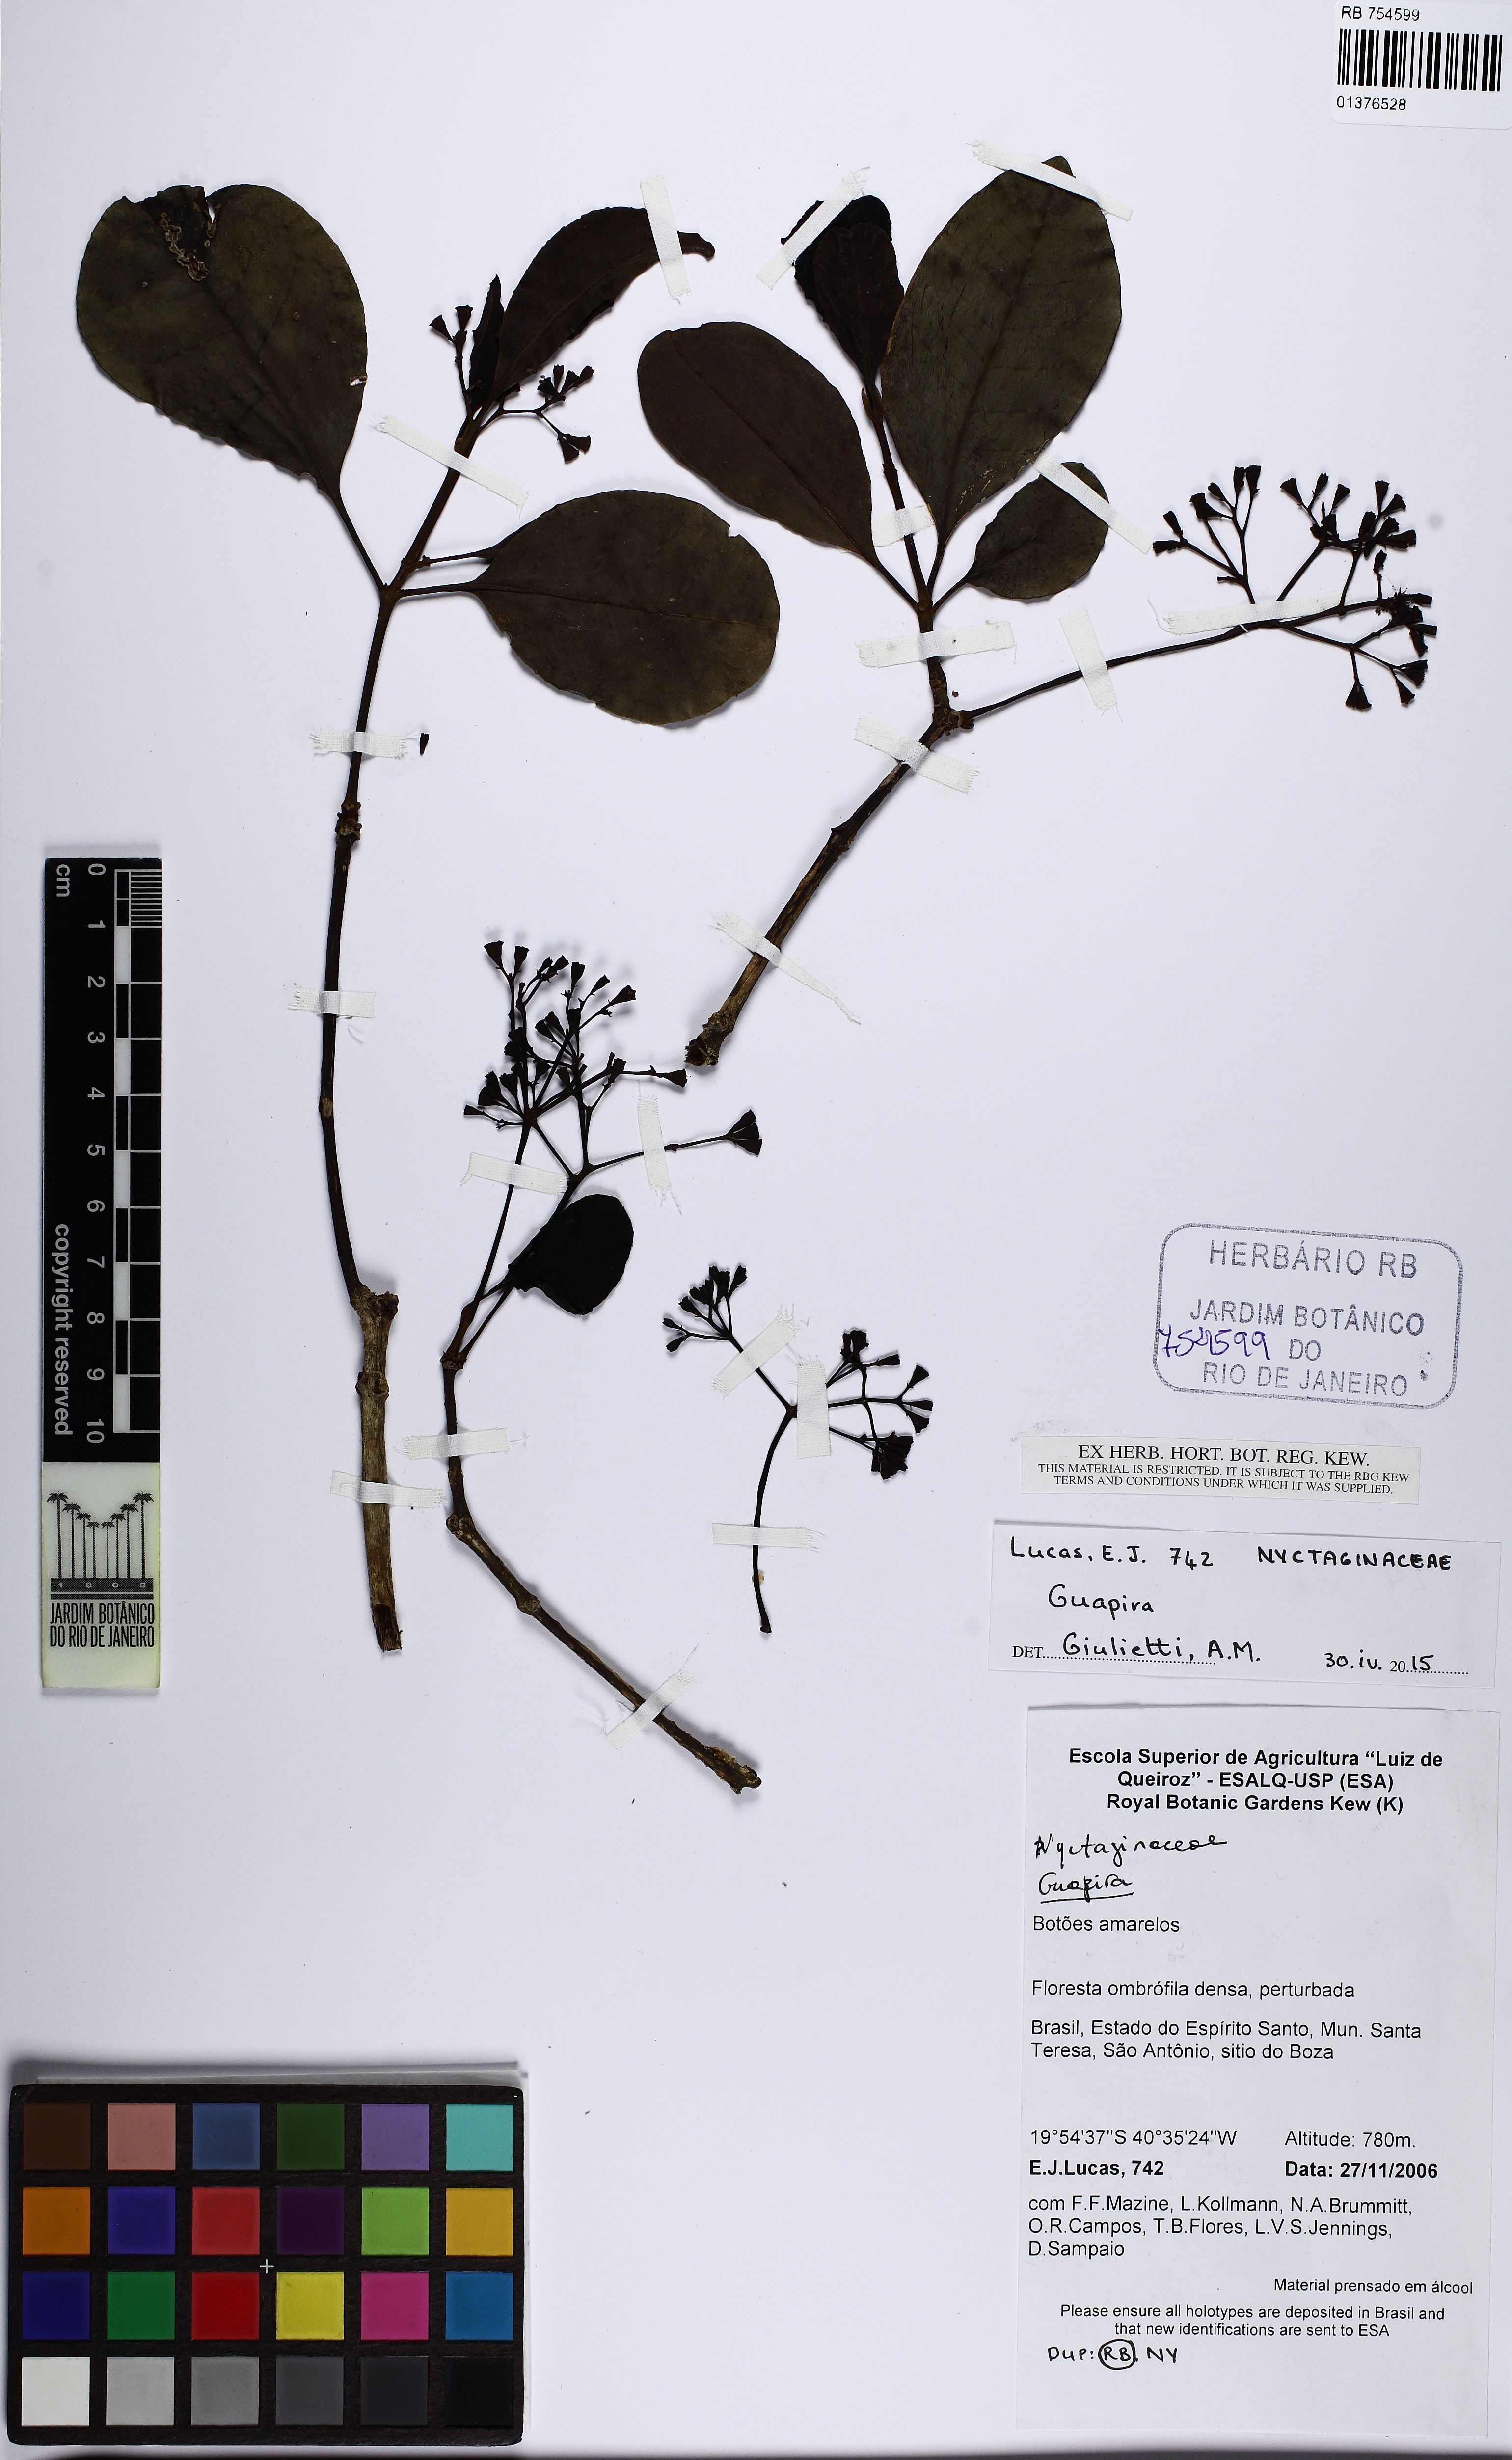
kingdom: Plantae
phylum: Tracheophyta
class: Magnoliopsida
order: Caryophyllales
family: Nyctaginaceae
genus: Guapira
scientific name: Guapira
